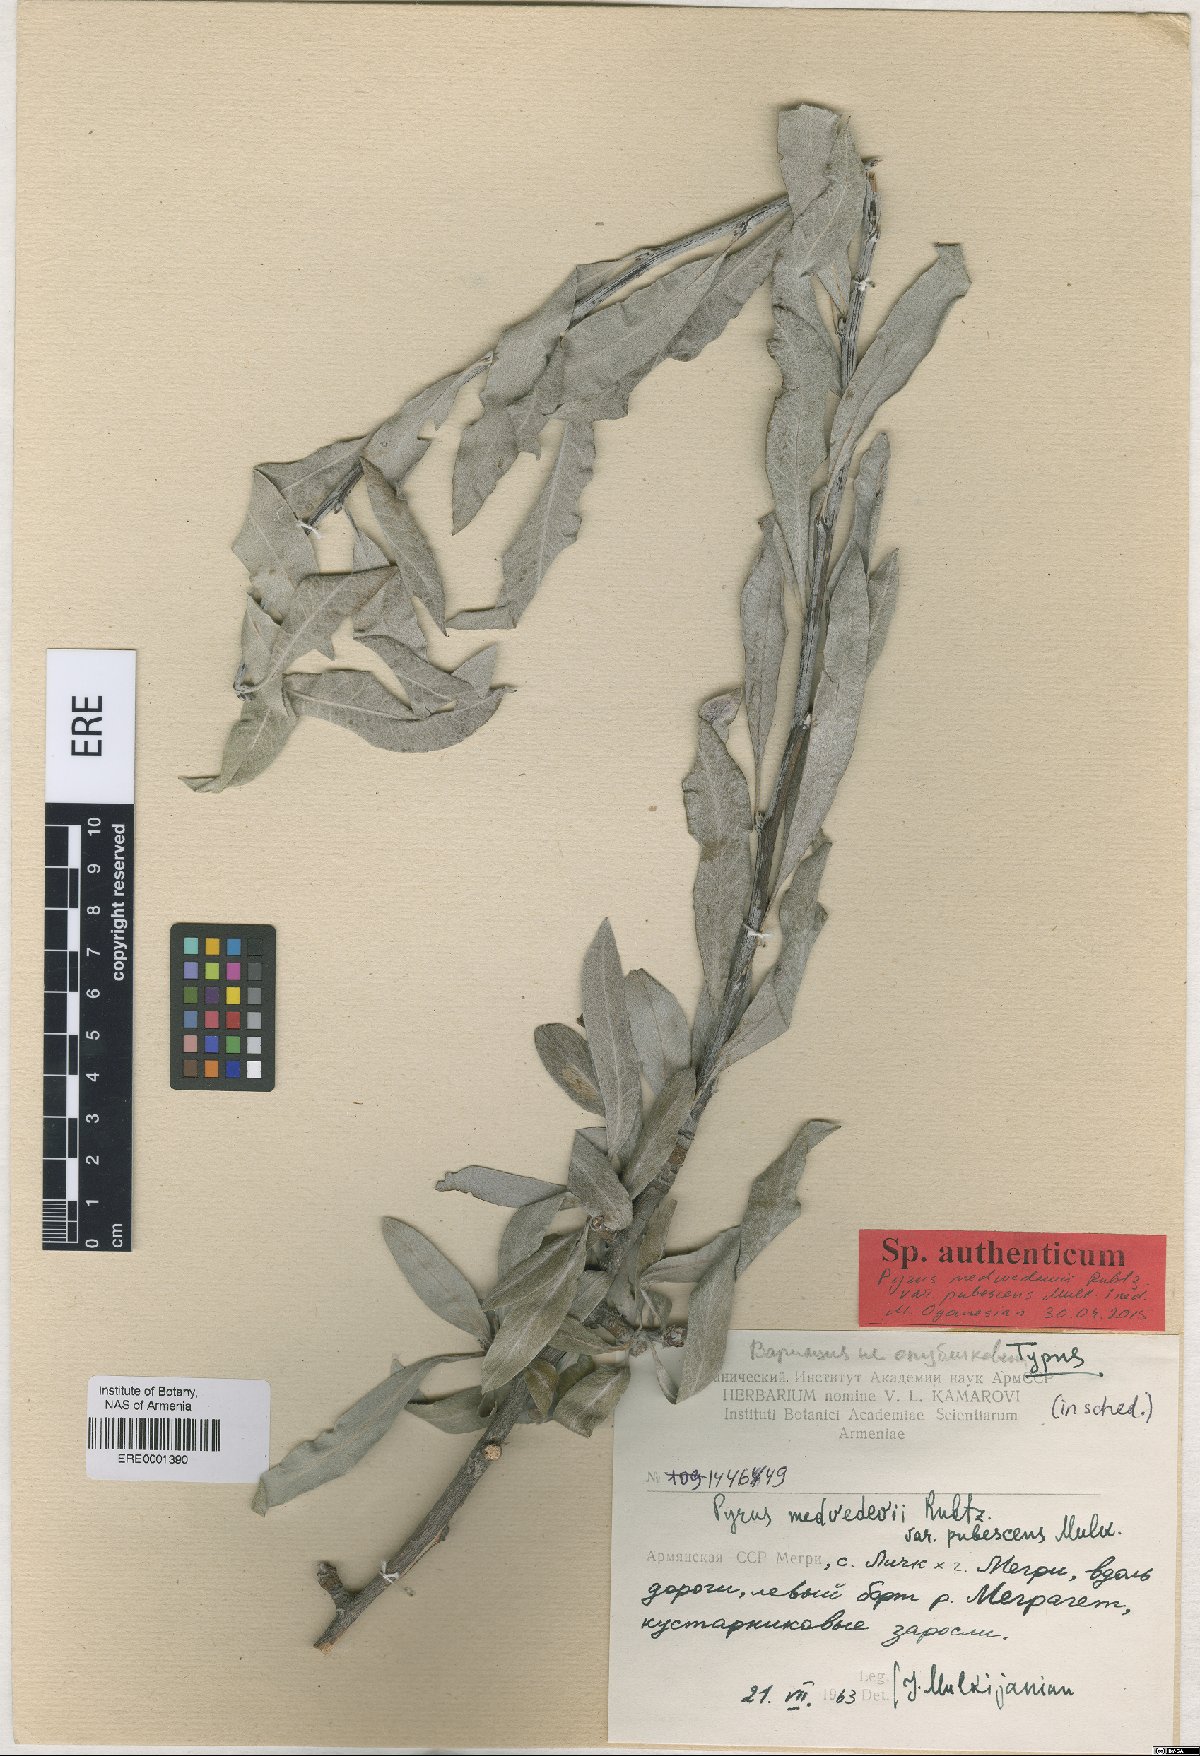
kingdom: Plantae
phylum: Tracheophyta
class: Magnoliopsida
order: Rosales
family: Rosaceae
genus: Pyrus
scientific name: Pyrus medvedevii
